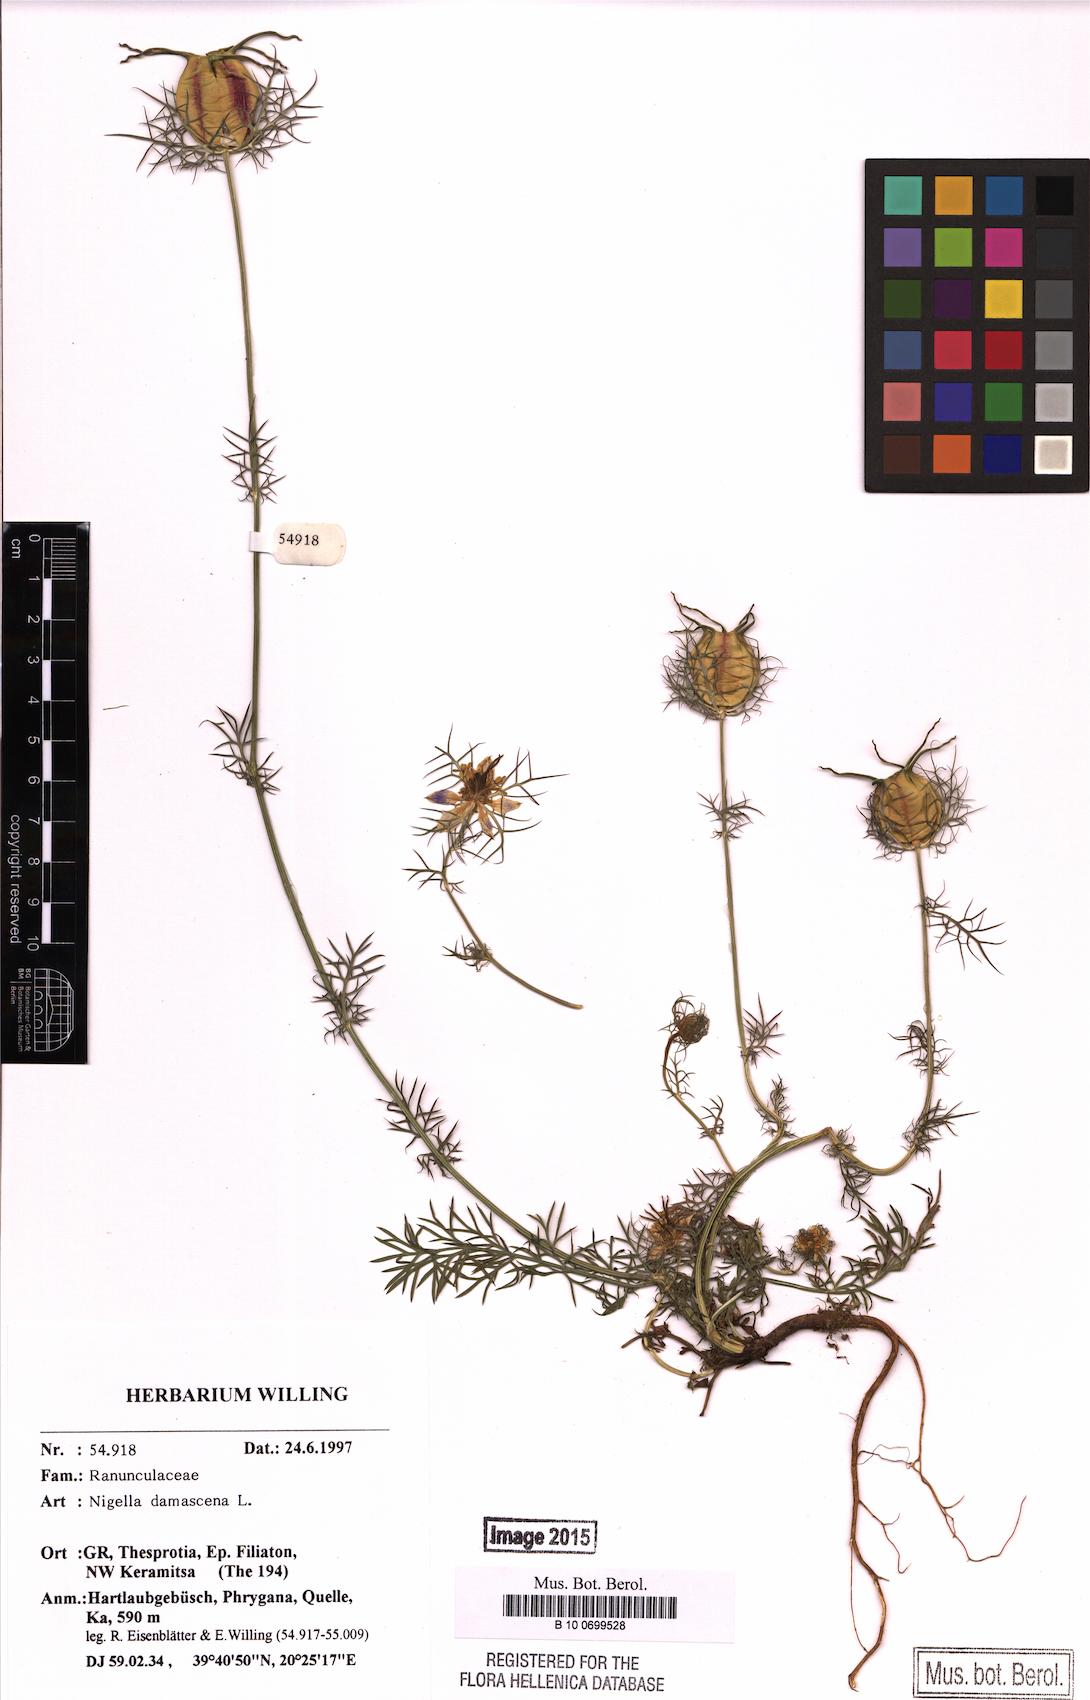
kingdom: Plantae
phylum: Tracheophyta
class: Magnoliopsida
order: Ranunculales
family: Ranunculaceae
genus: Nigella
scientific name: Nigella damascena
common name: Love-in-a-mist
